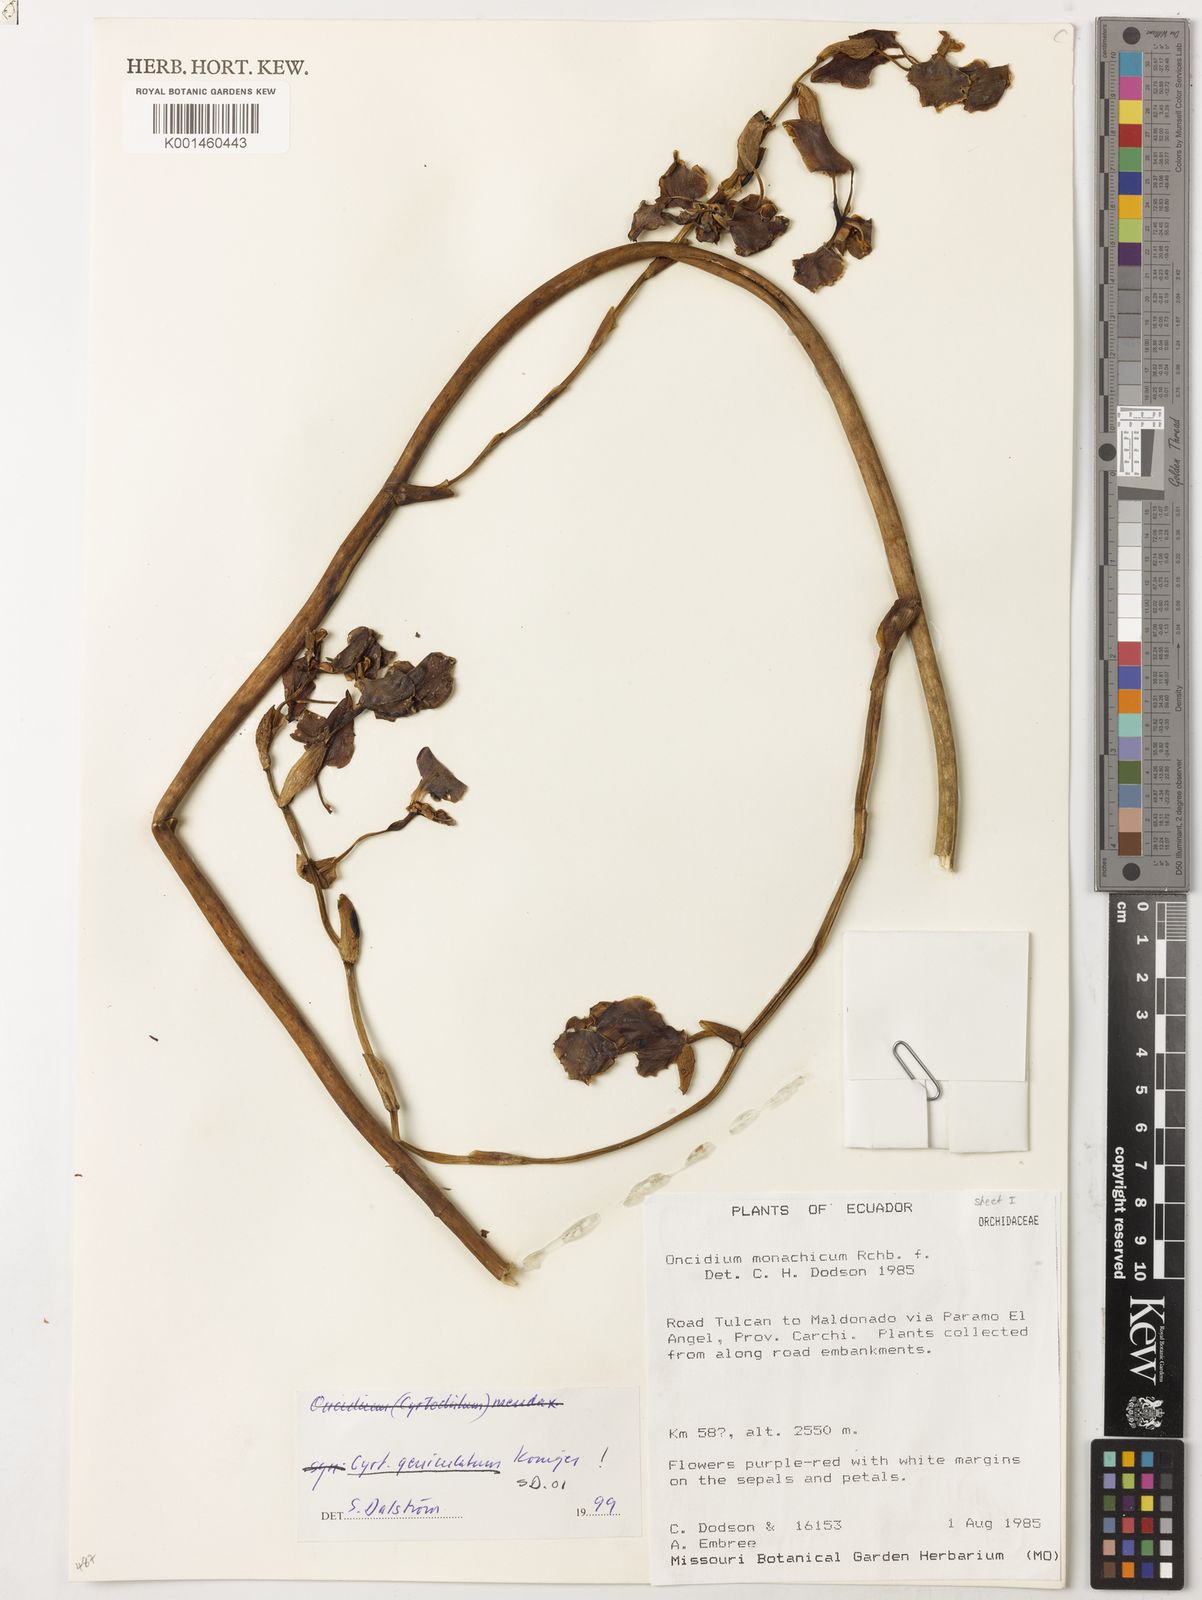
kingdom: Plantae
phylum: Tracheophyta
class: Liliopsida
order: Asparagales
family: Orchidaceae
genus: Cyrtochilum
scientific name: Cyrtochilum mendax
